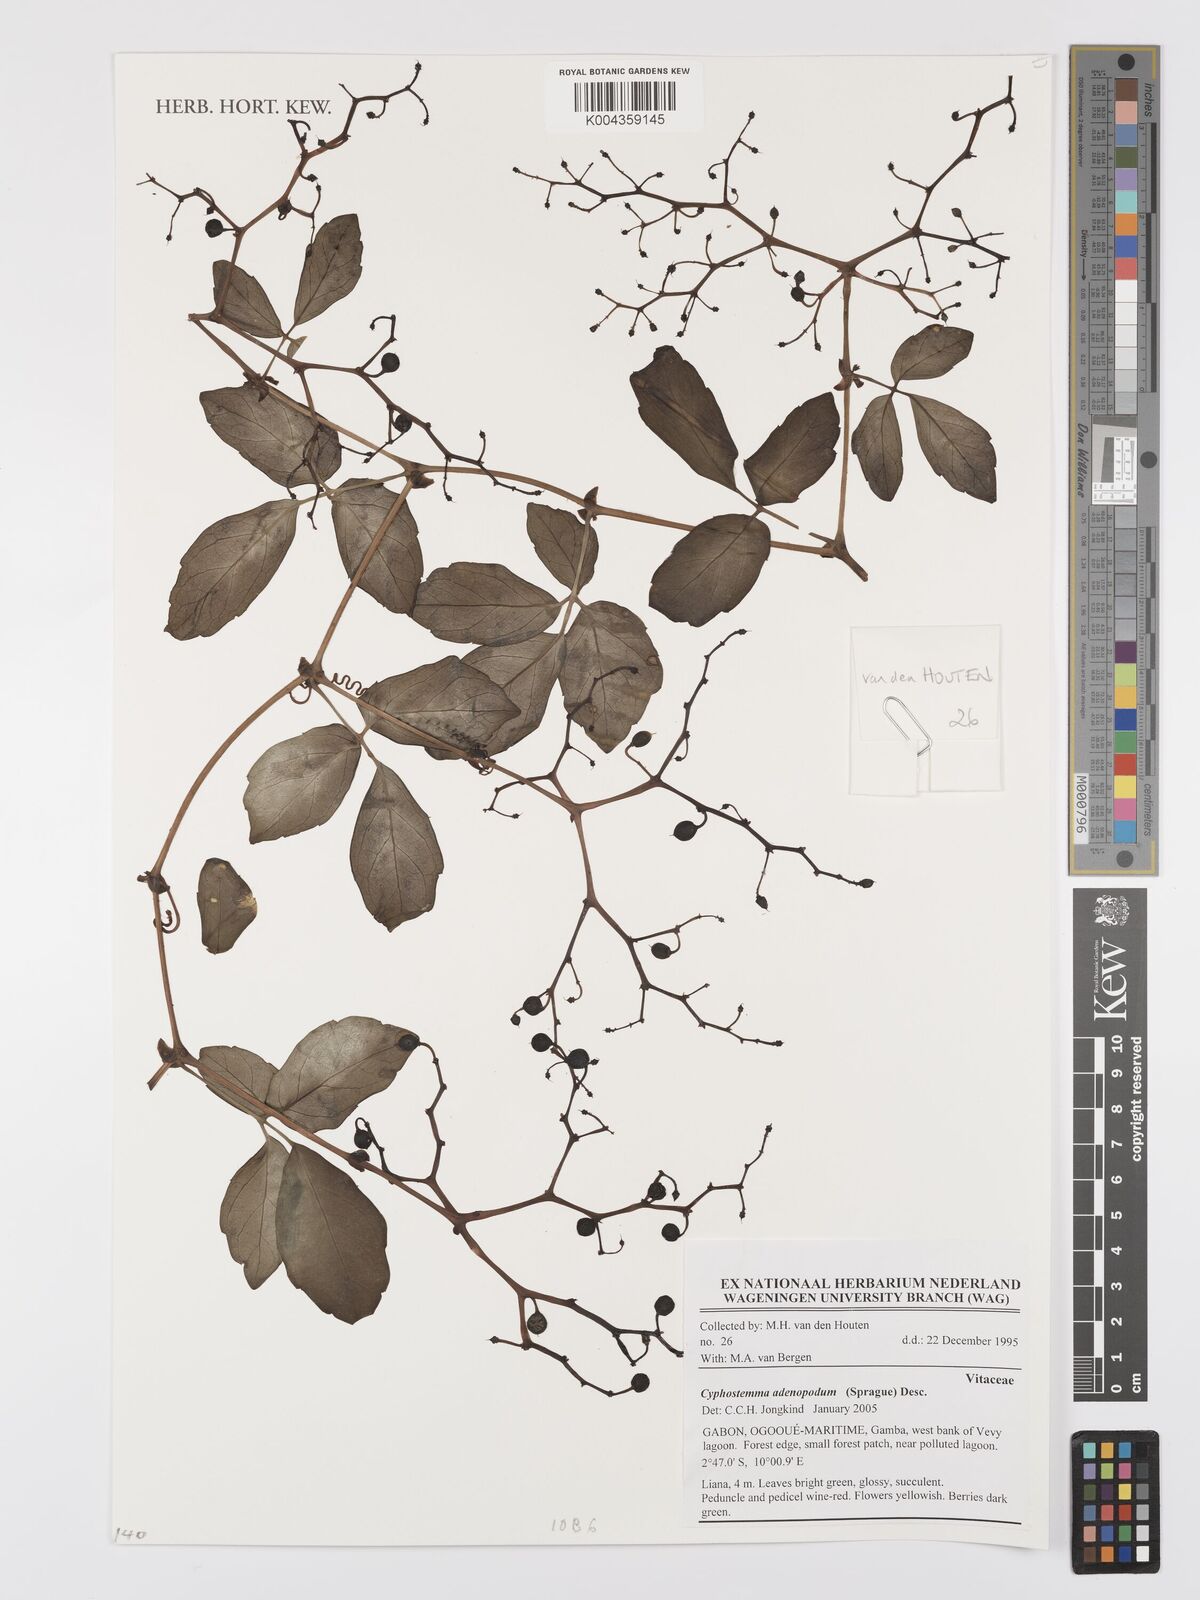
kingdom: Plantae
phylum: Tracheophyta
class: Magnoliopsida
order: Vitales
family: Vitaceae
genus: Cyphostemma
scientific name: Cyphostemma adenopodum
